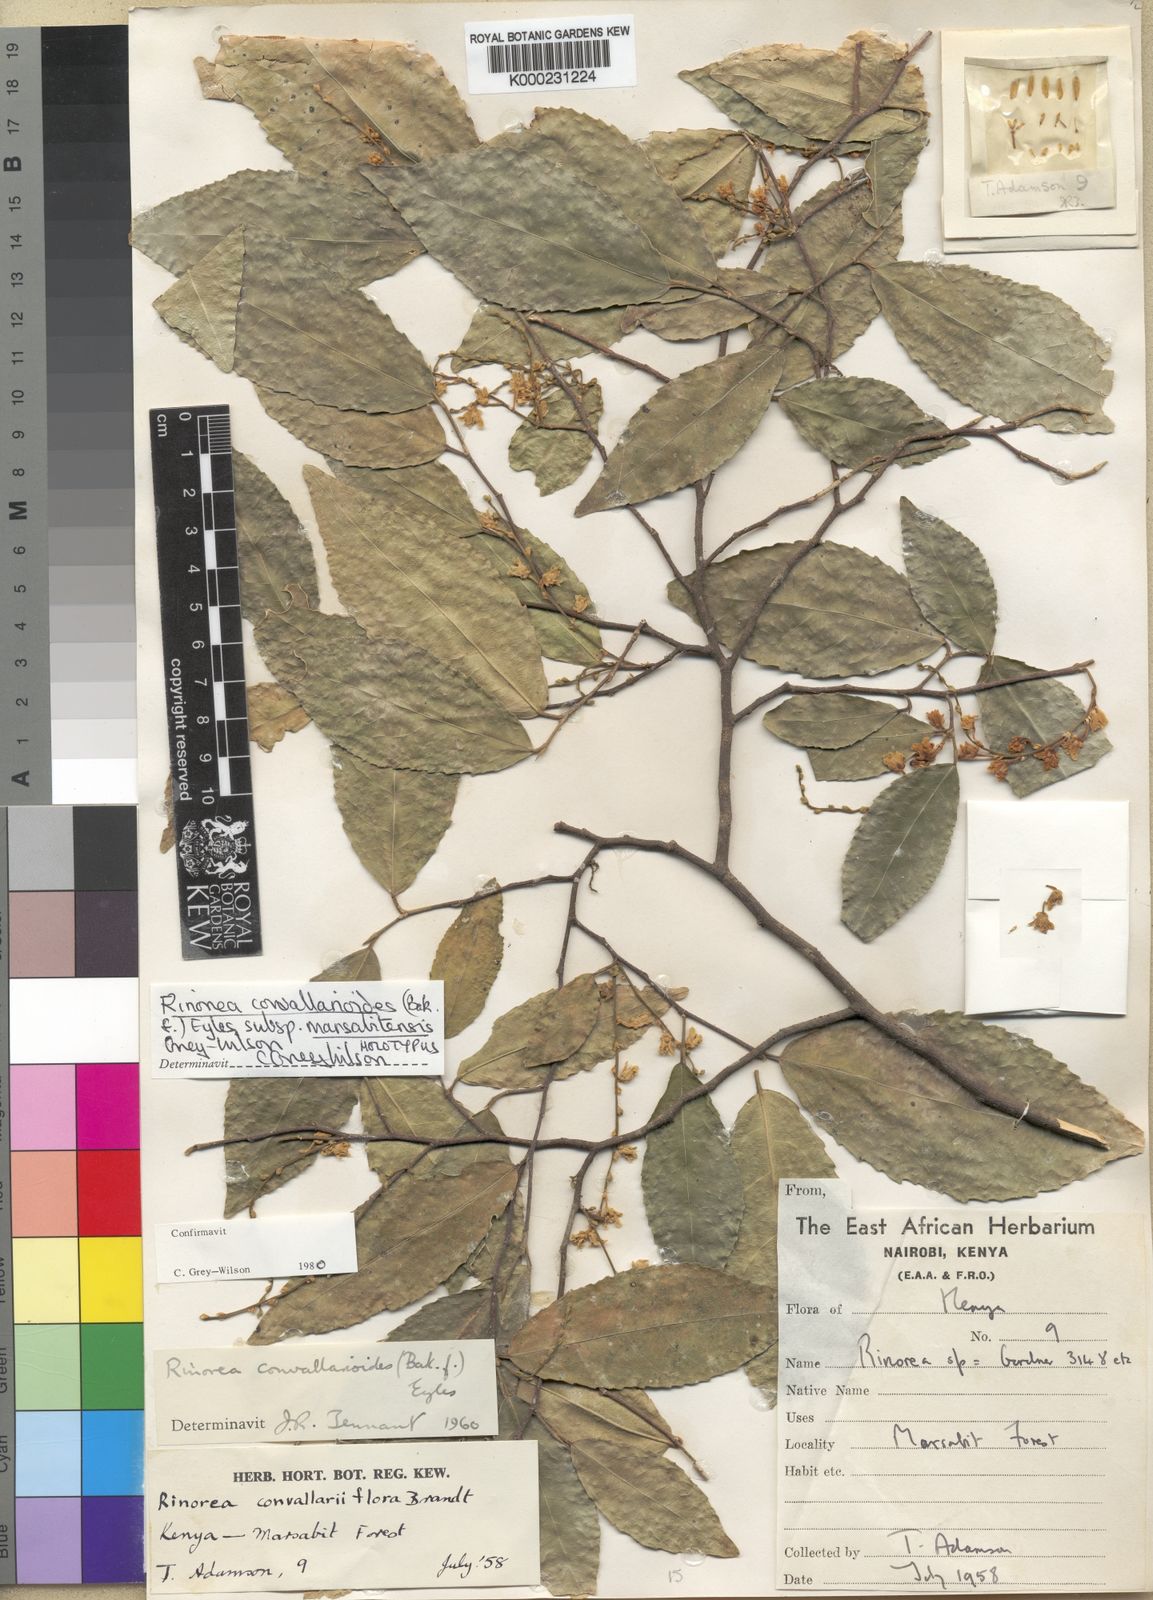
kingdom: Plantae
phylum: Tracheophyta
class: Magnoliopsida
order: Malpighiales
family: Violaceae
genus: Rinorea
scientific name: Rinorea convallarioides
